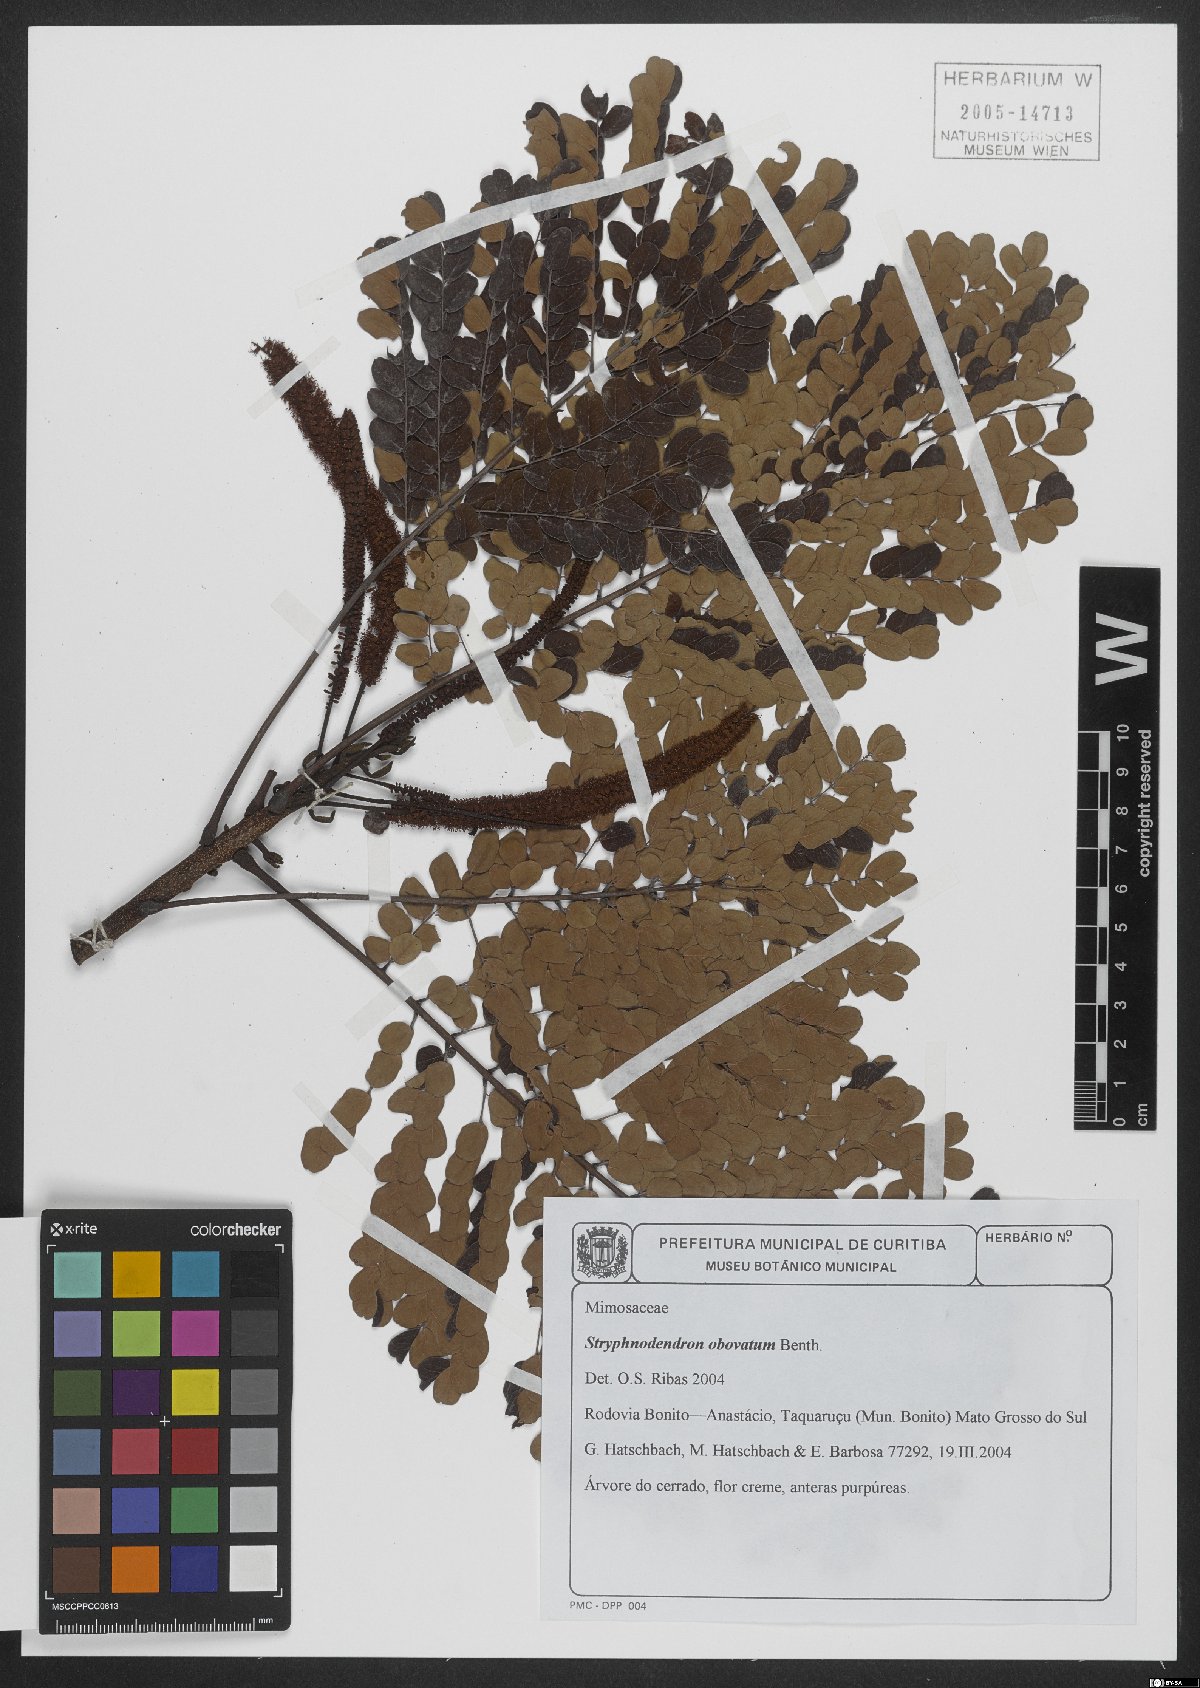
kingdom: Plantae
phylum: Tracheophyta
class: Magnoliopsida
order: Fabales
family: Fabaceae
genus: Stryphnodendron
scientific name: Stryphnodendron rotundifolium
